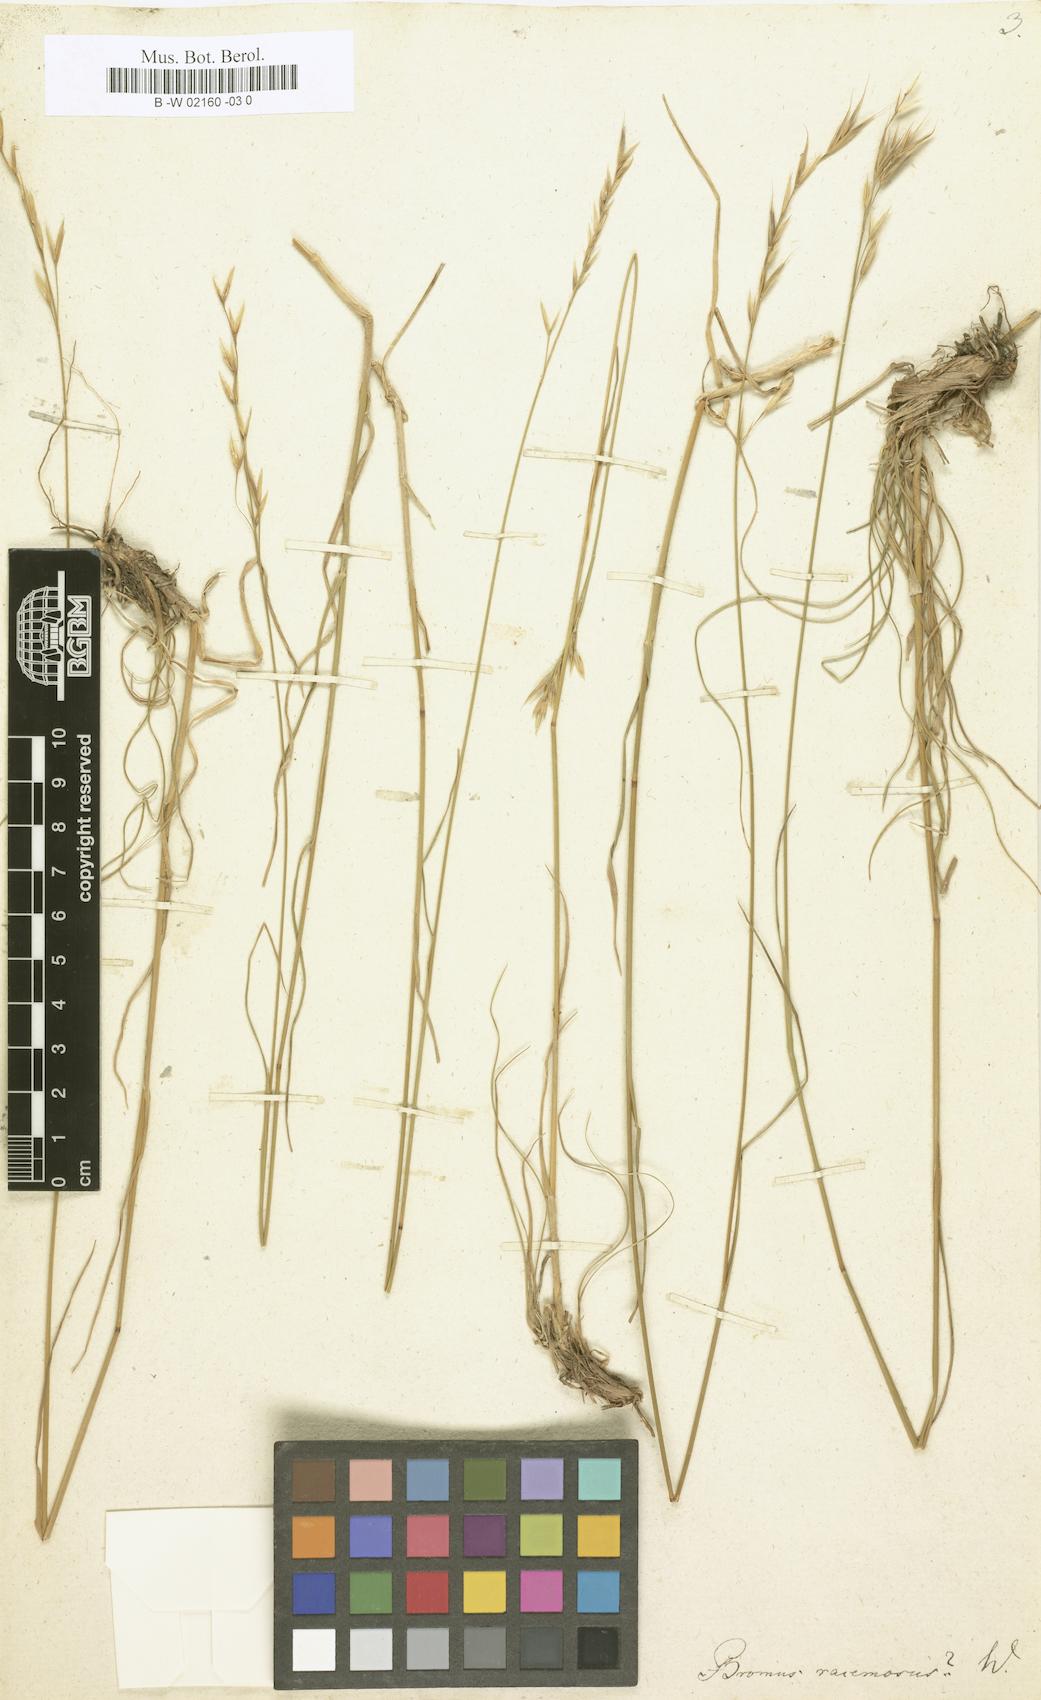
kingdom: Plantae
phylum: Tracheophyta
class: Liliopsida
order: Poales
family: Poaceae
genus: Bromus
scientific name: Bromus racemosus
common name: Bald brome
